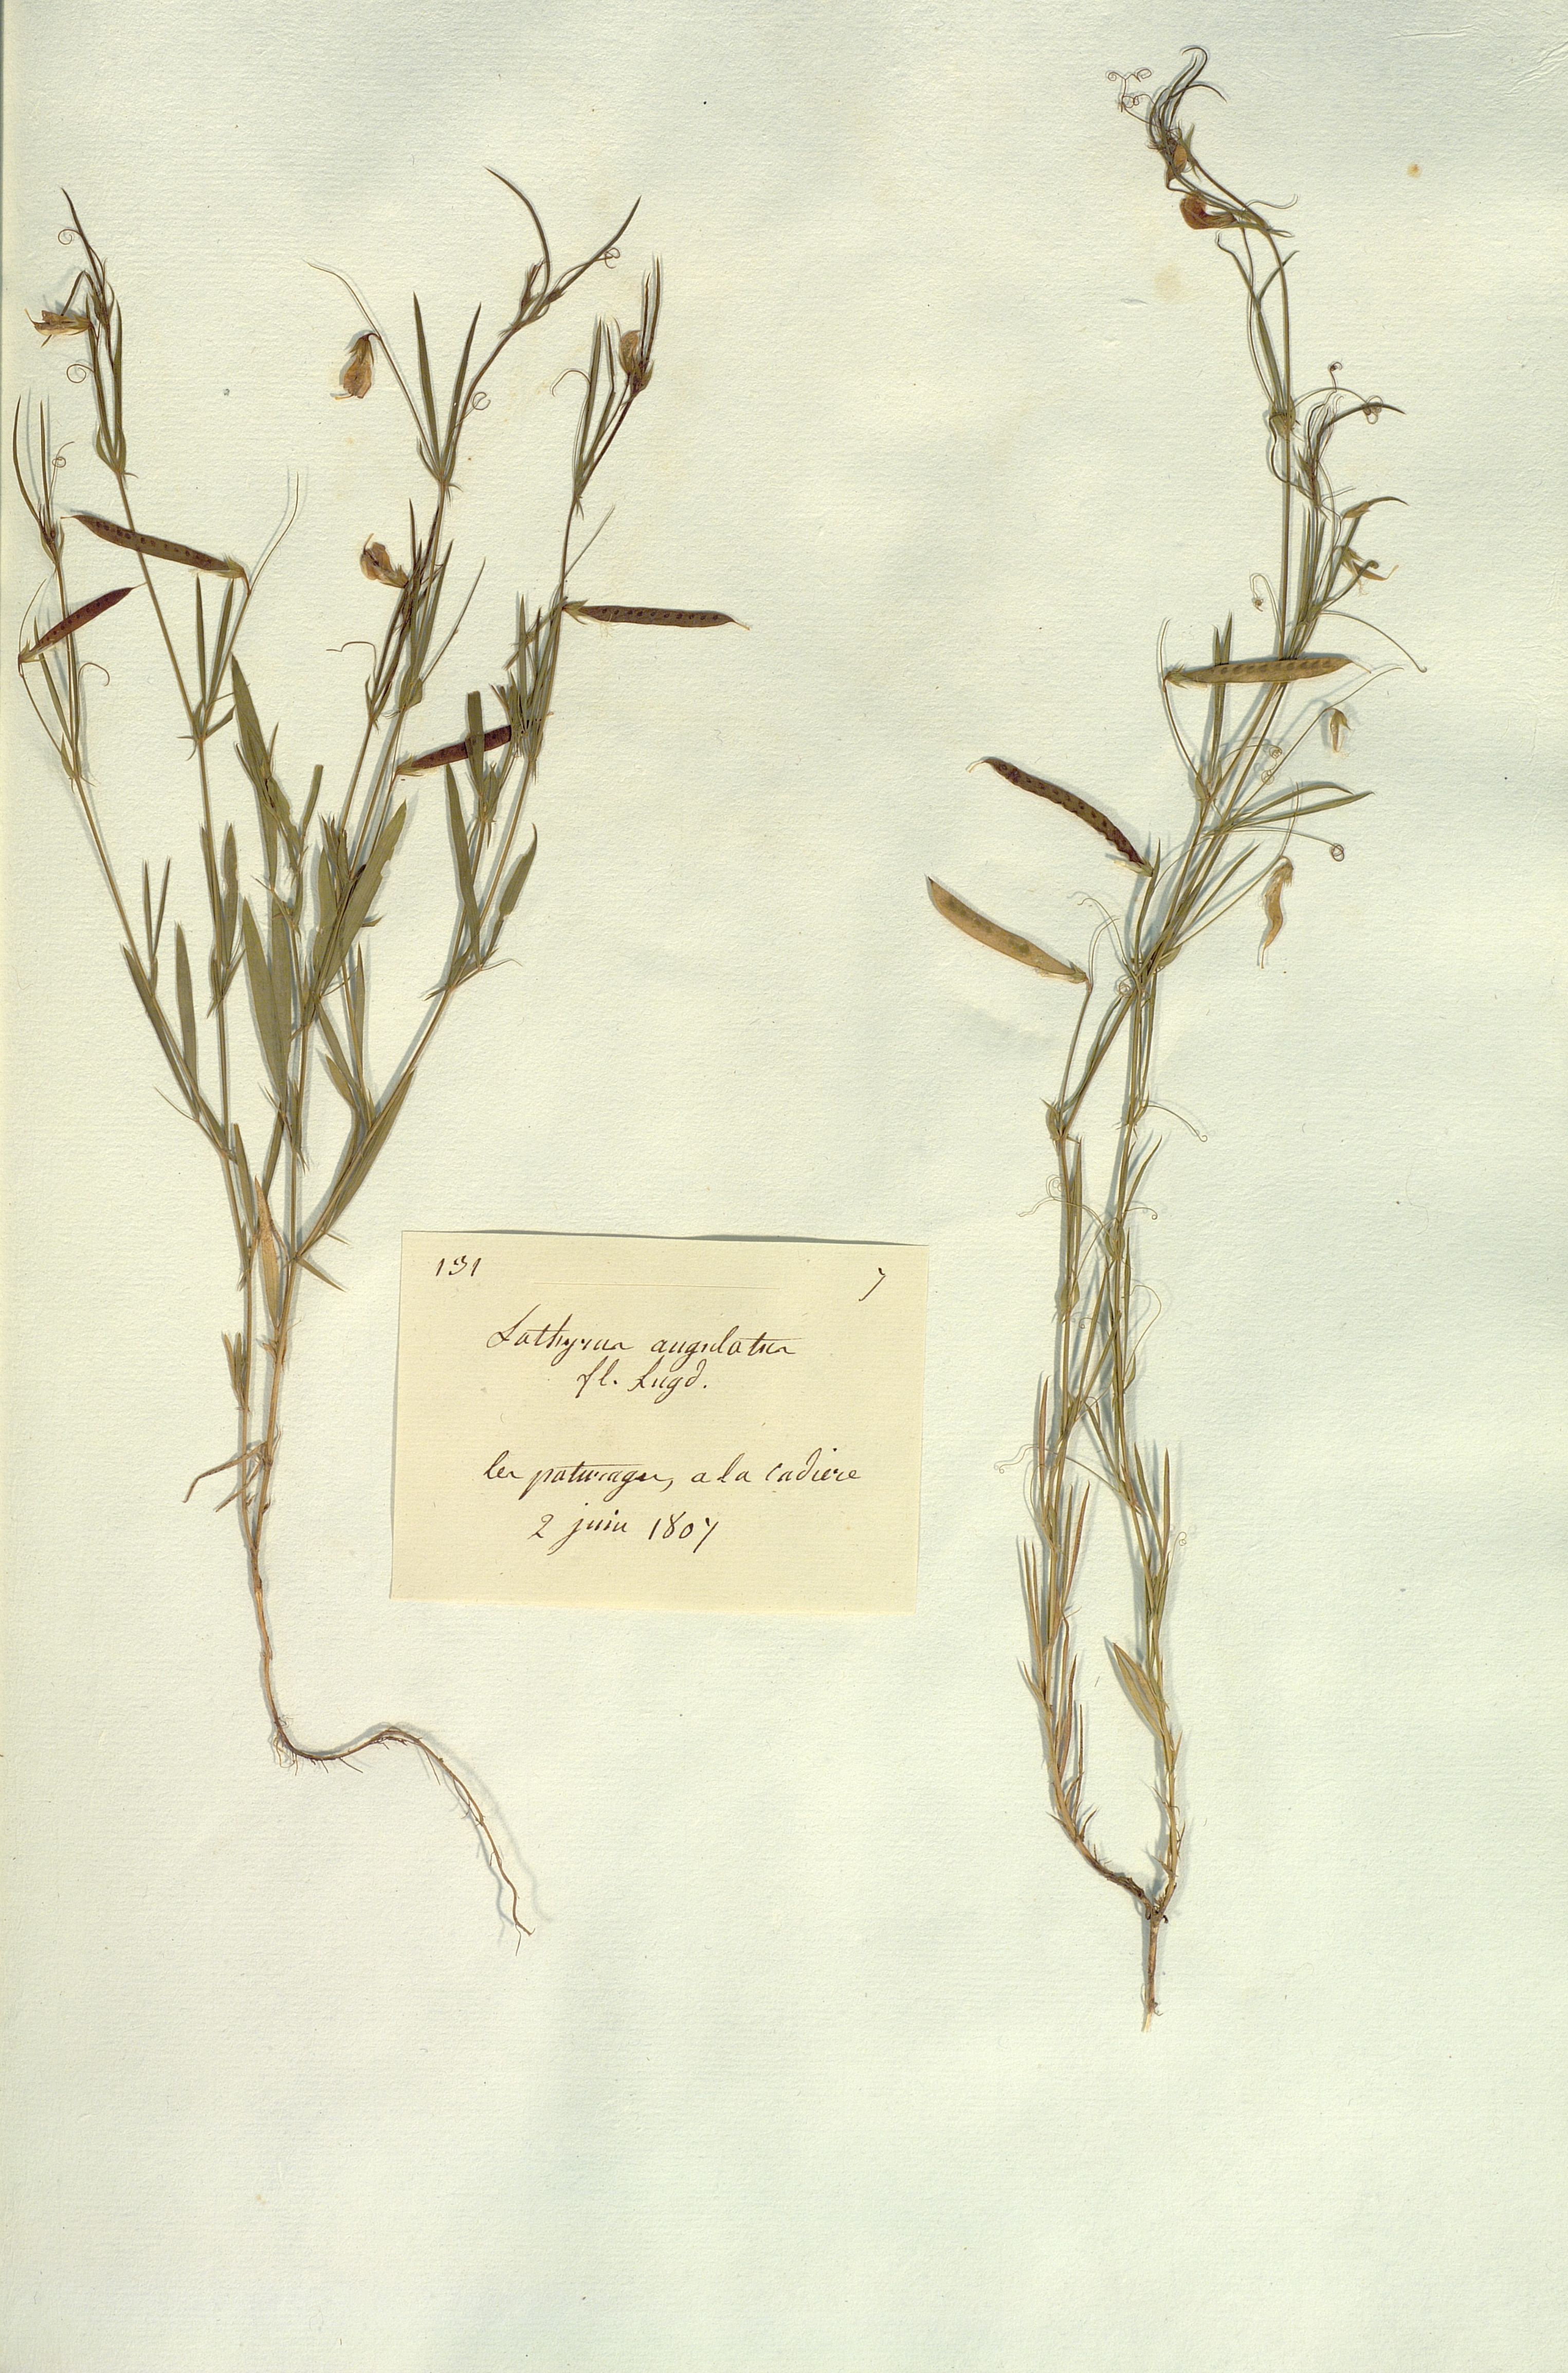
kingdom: Plantae
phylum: Tracheophyta
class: Magnoliopsida
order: Fabales
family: Fabaceae
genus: Lathyrus
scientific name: Lathyrus angulatus
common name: Angular pea
